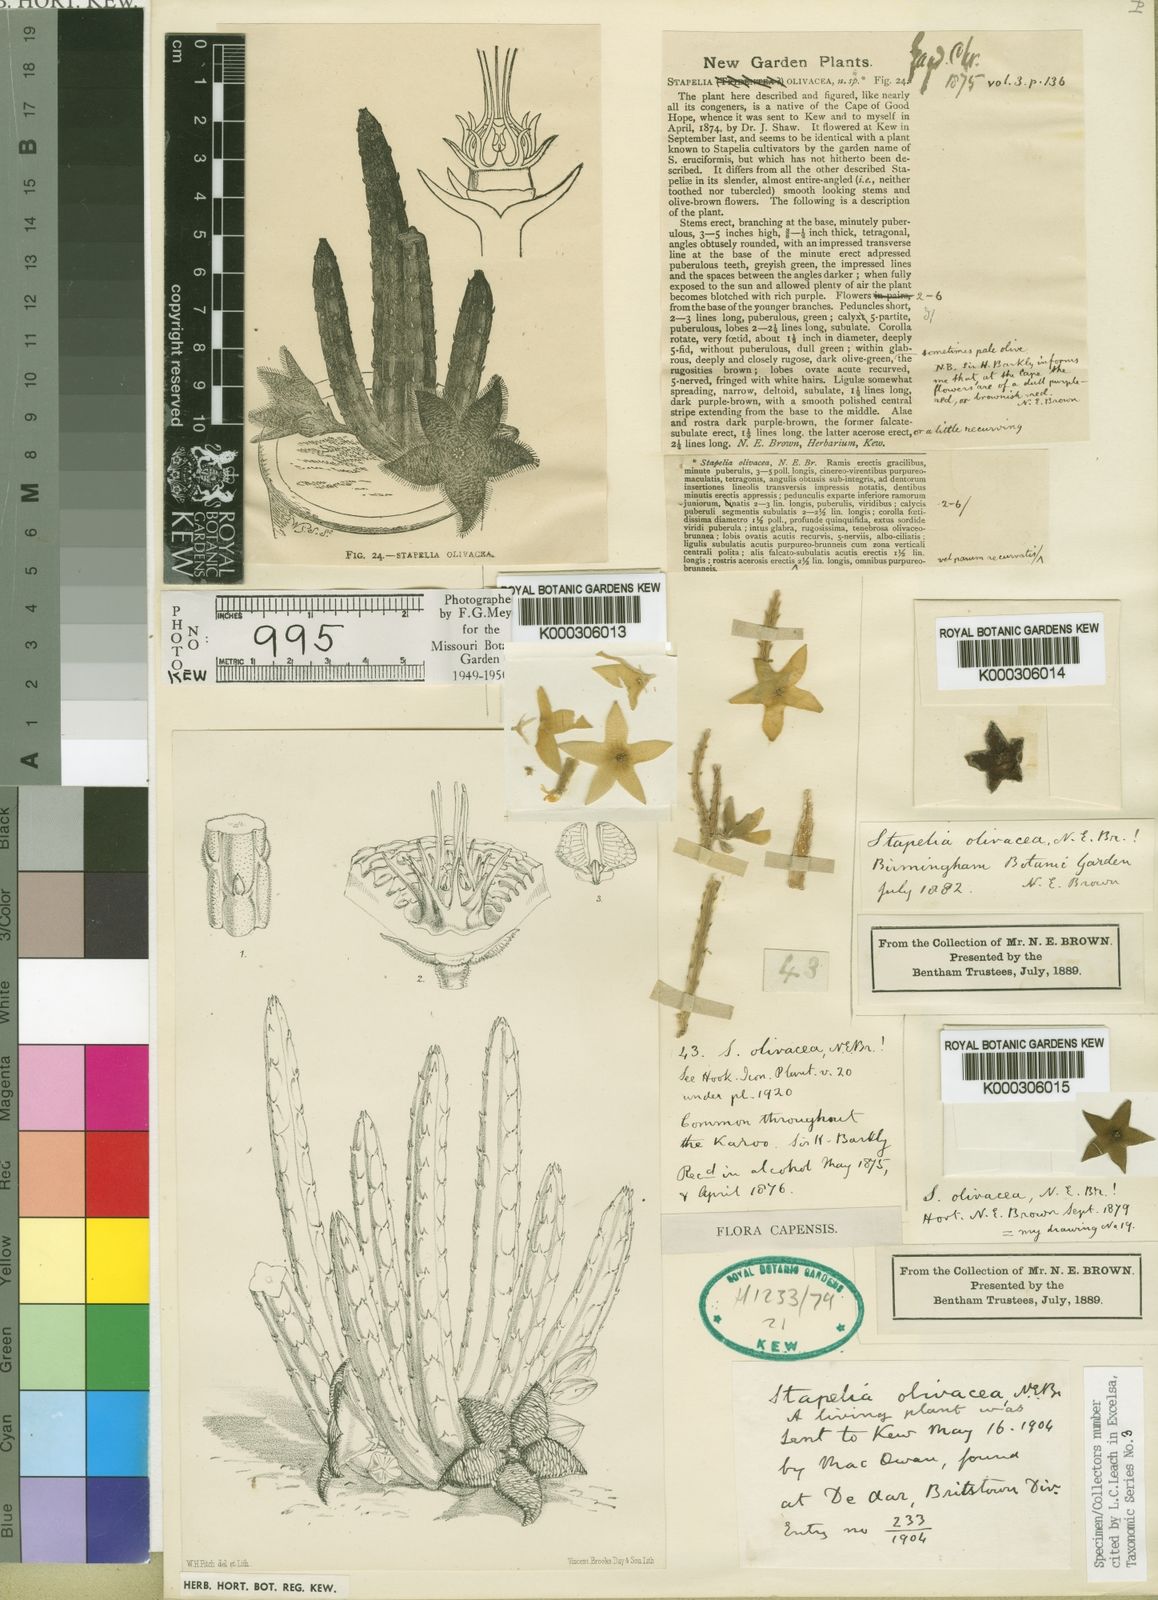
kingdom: Plantae
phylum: Tracheophyta
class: Magnoliopsida
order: Gentianales
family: Apocynaceae
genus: Ceropegia
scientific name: Ceropegia olivacea
